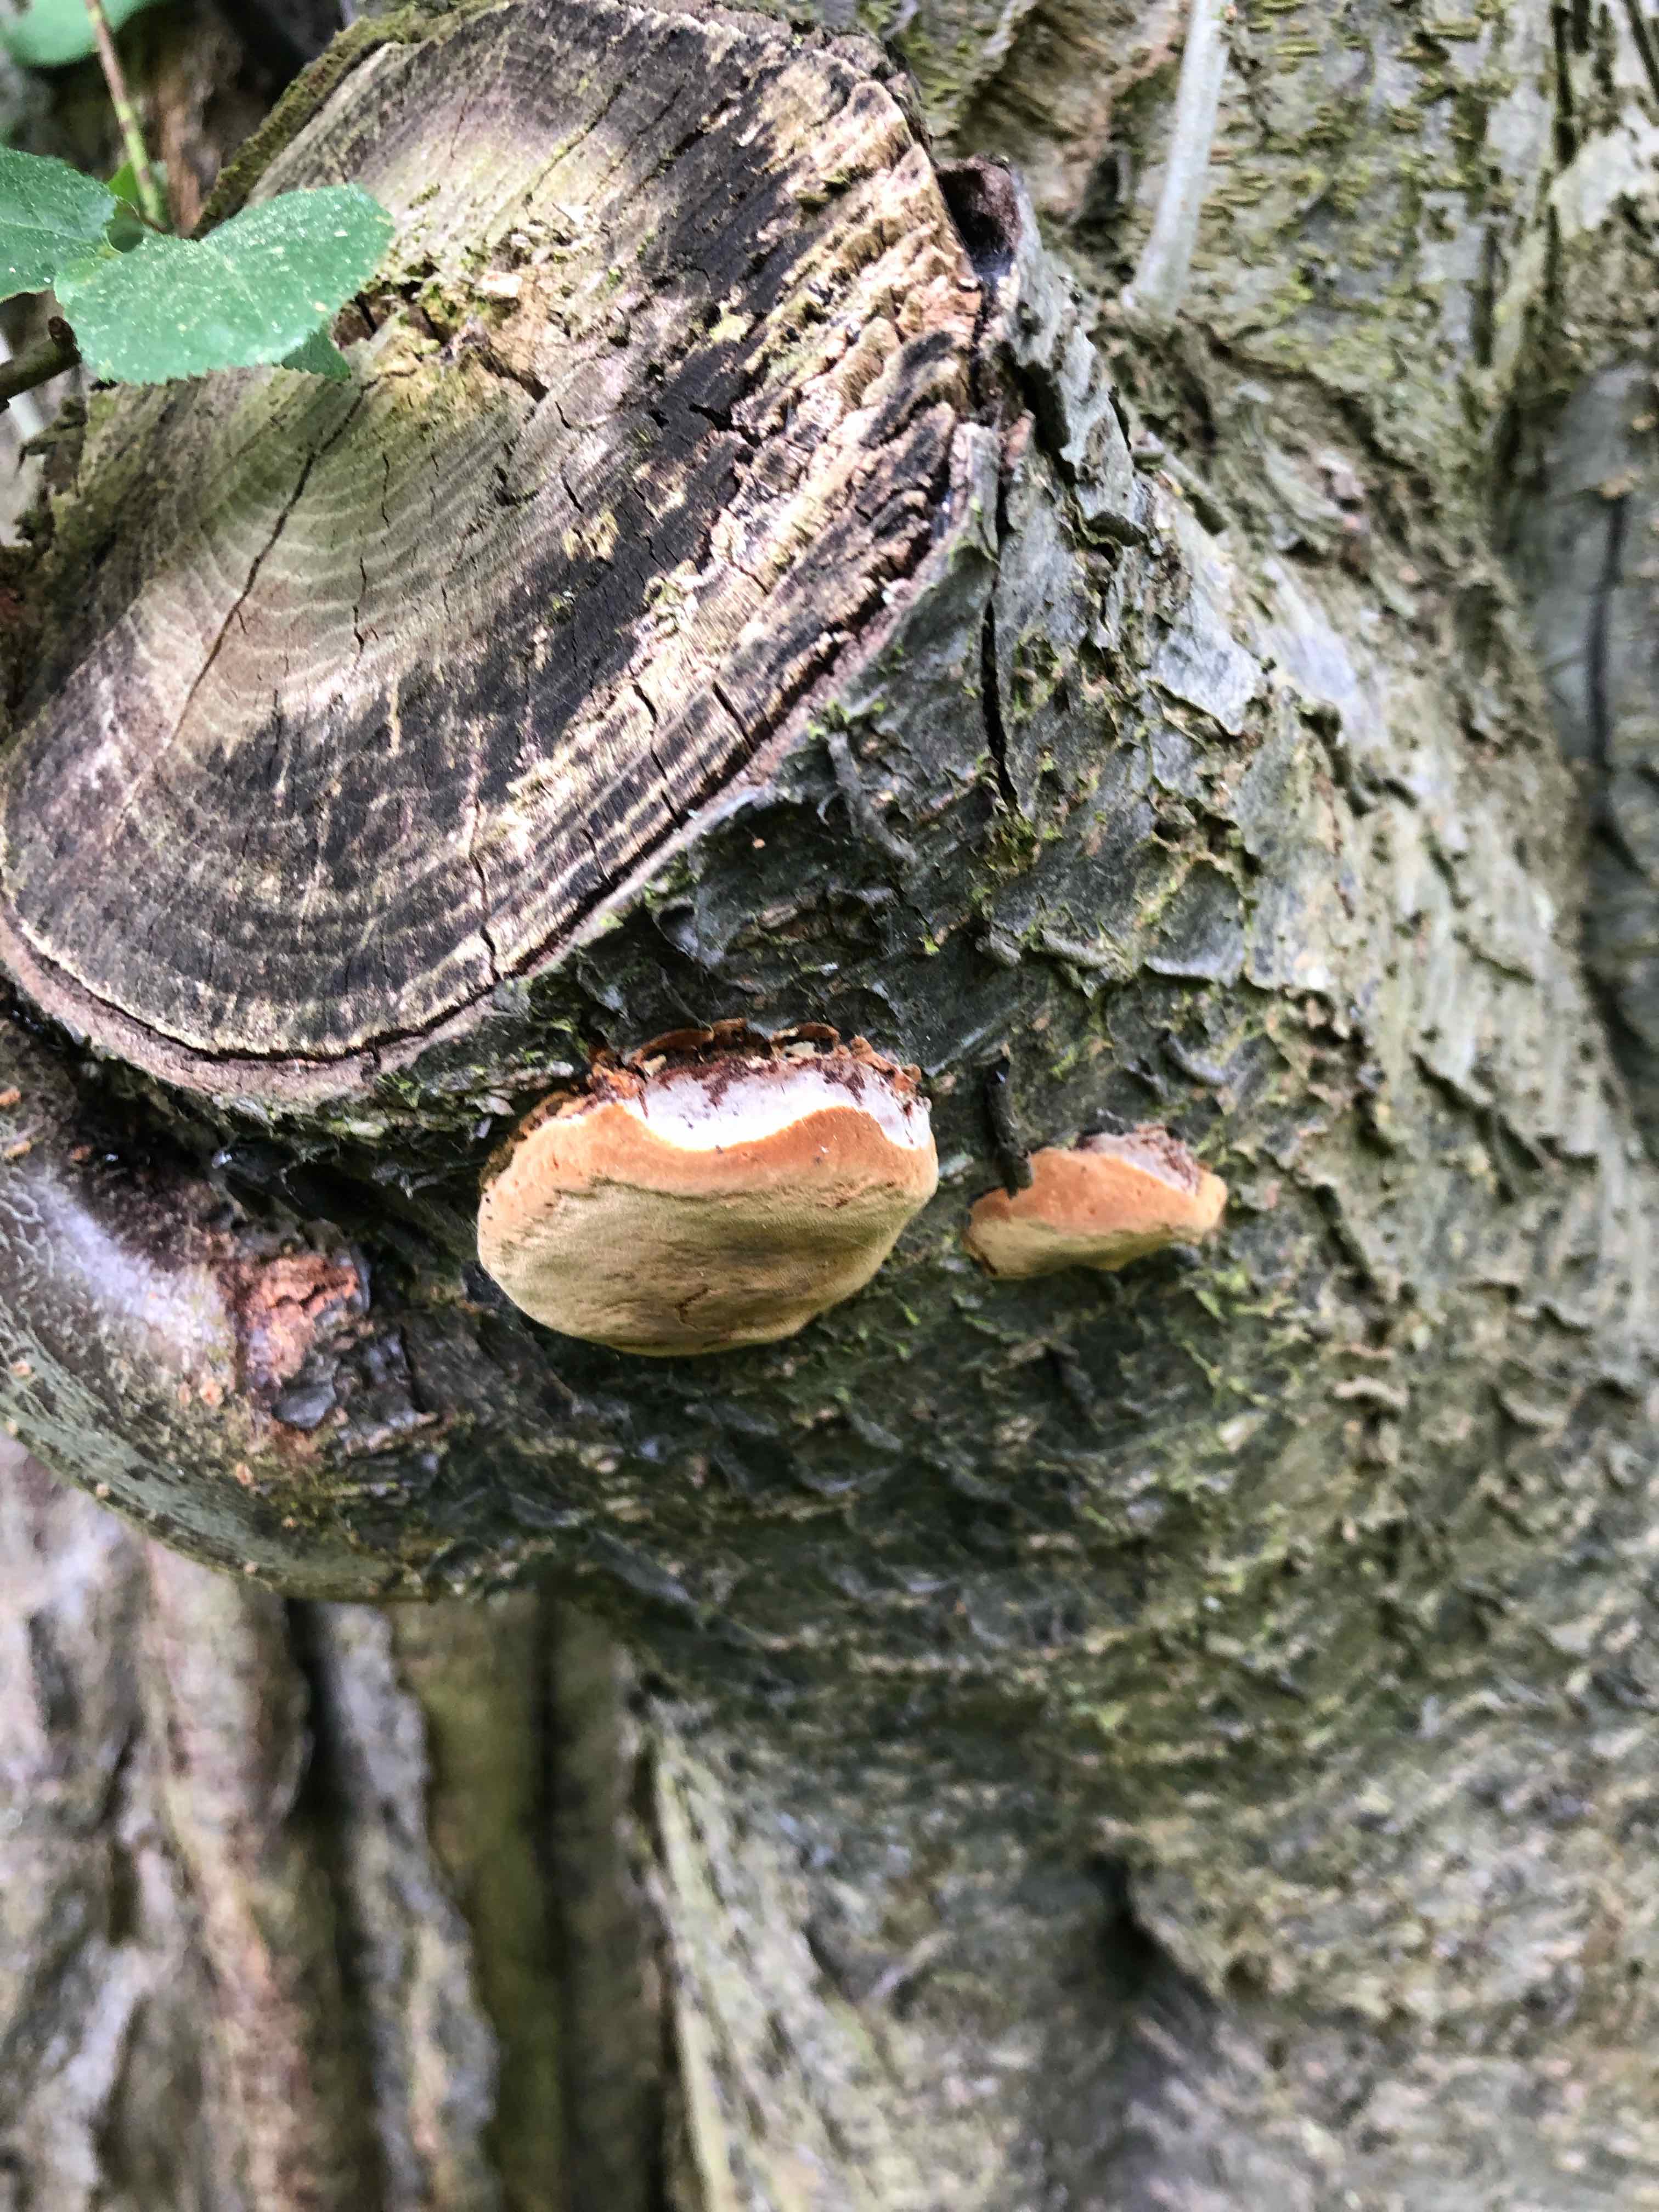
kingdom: Fungi
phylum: Basidiomycota
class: Agaricomycetes
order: Hymenochaetales
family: Hymenochaetaceae
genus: Phellinus
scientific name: Phellinus pomaceus
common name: blomme-ildporesvamp
